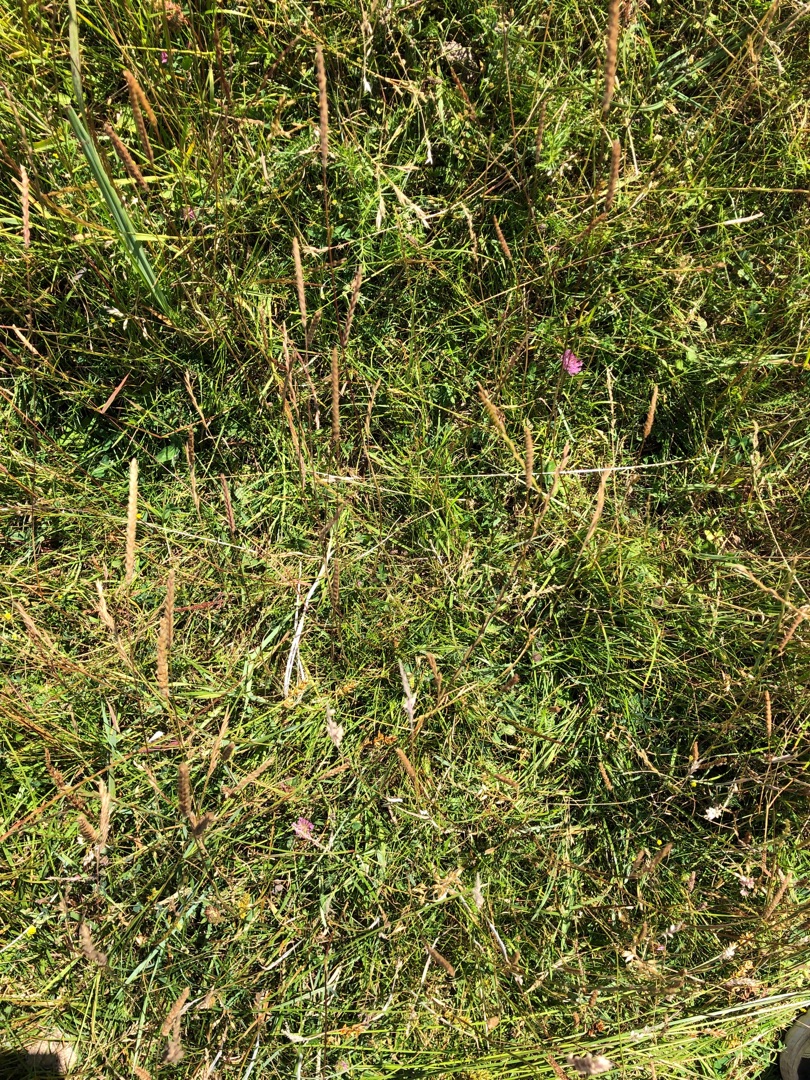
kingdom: Plantae
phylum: Tracheophyta
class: Magnoliopsida
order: Fabales
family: Fabaceae
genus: Trifolium
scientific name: Trifolium pratense
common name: Rød-kløver
